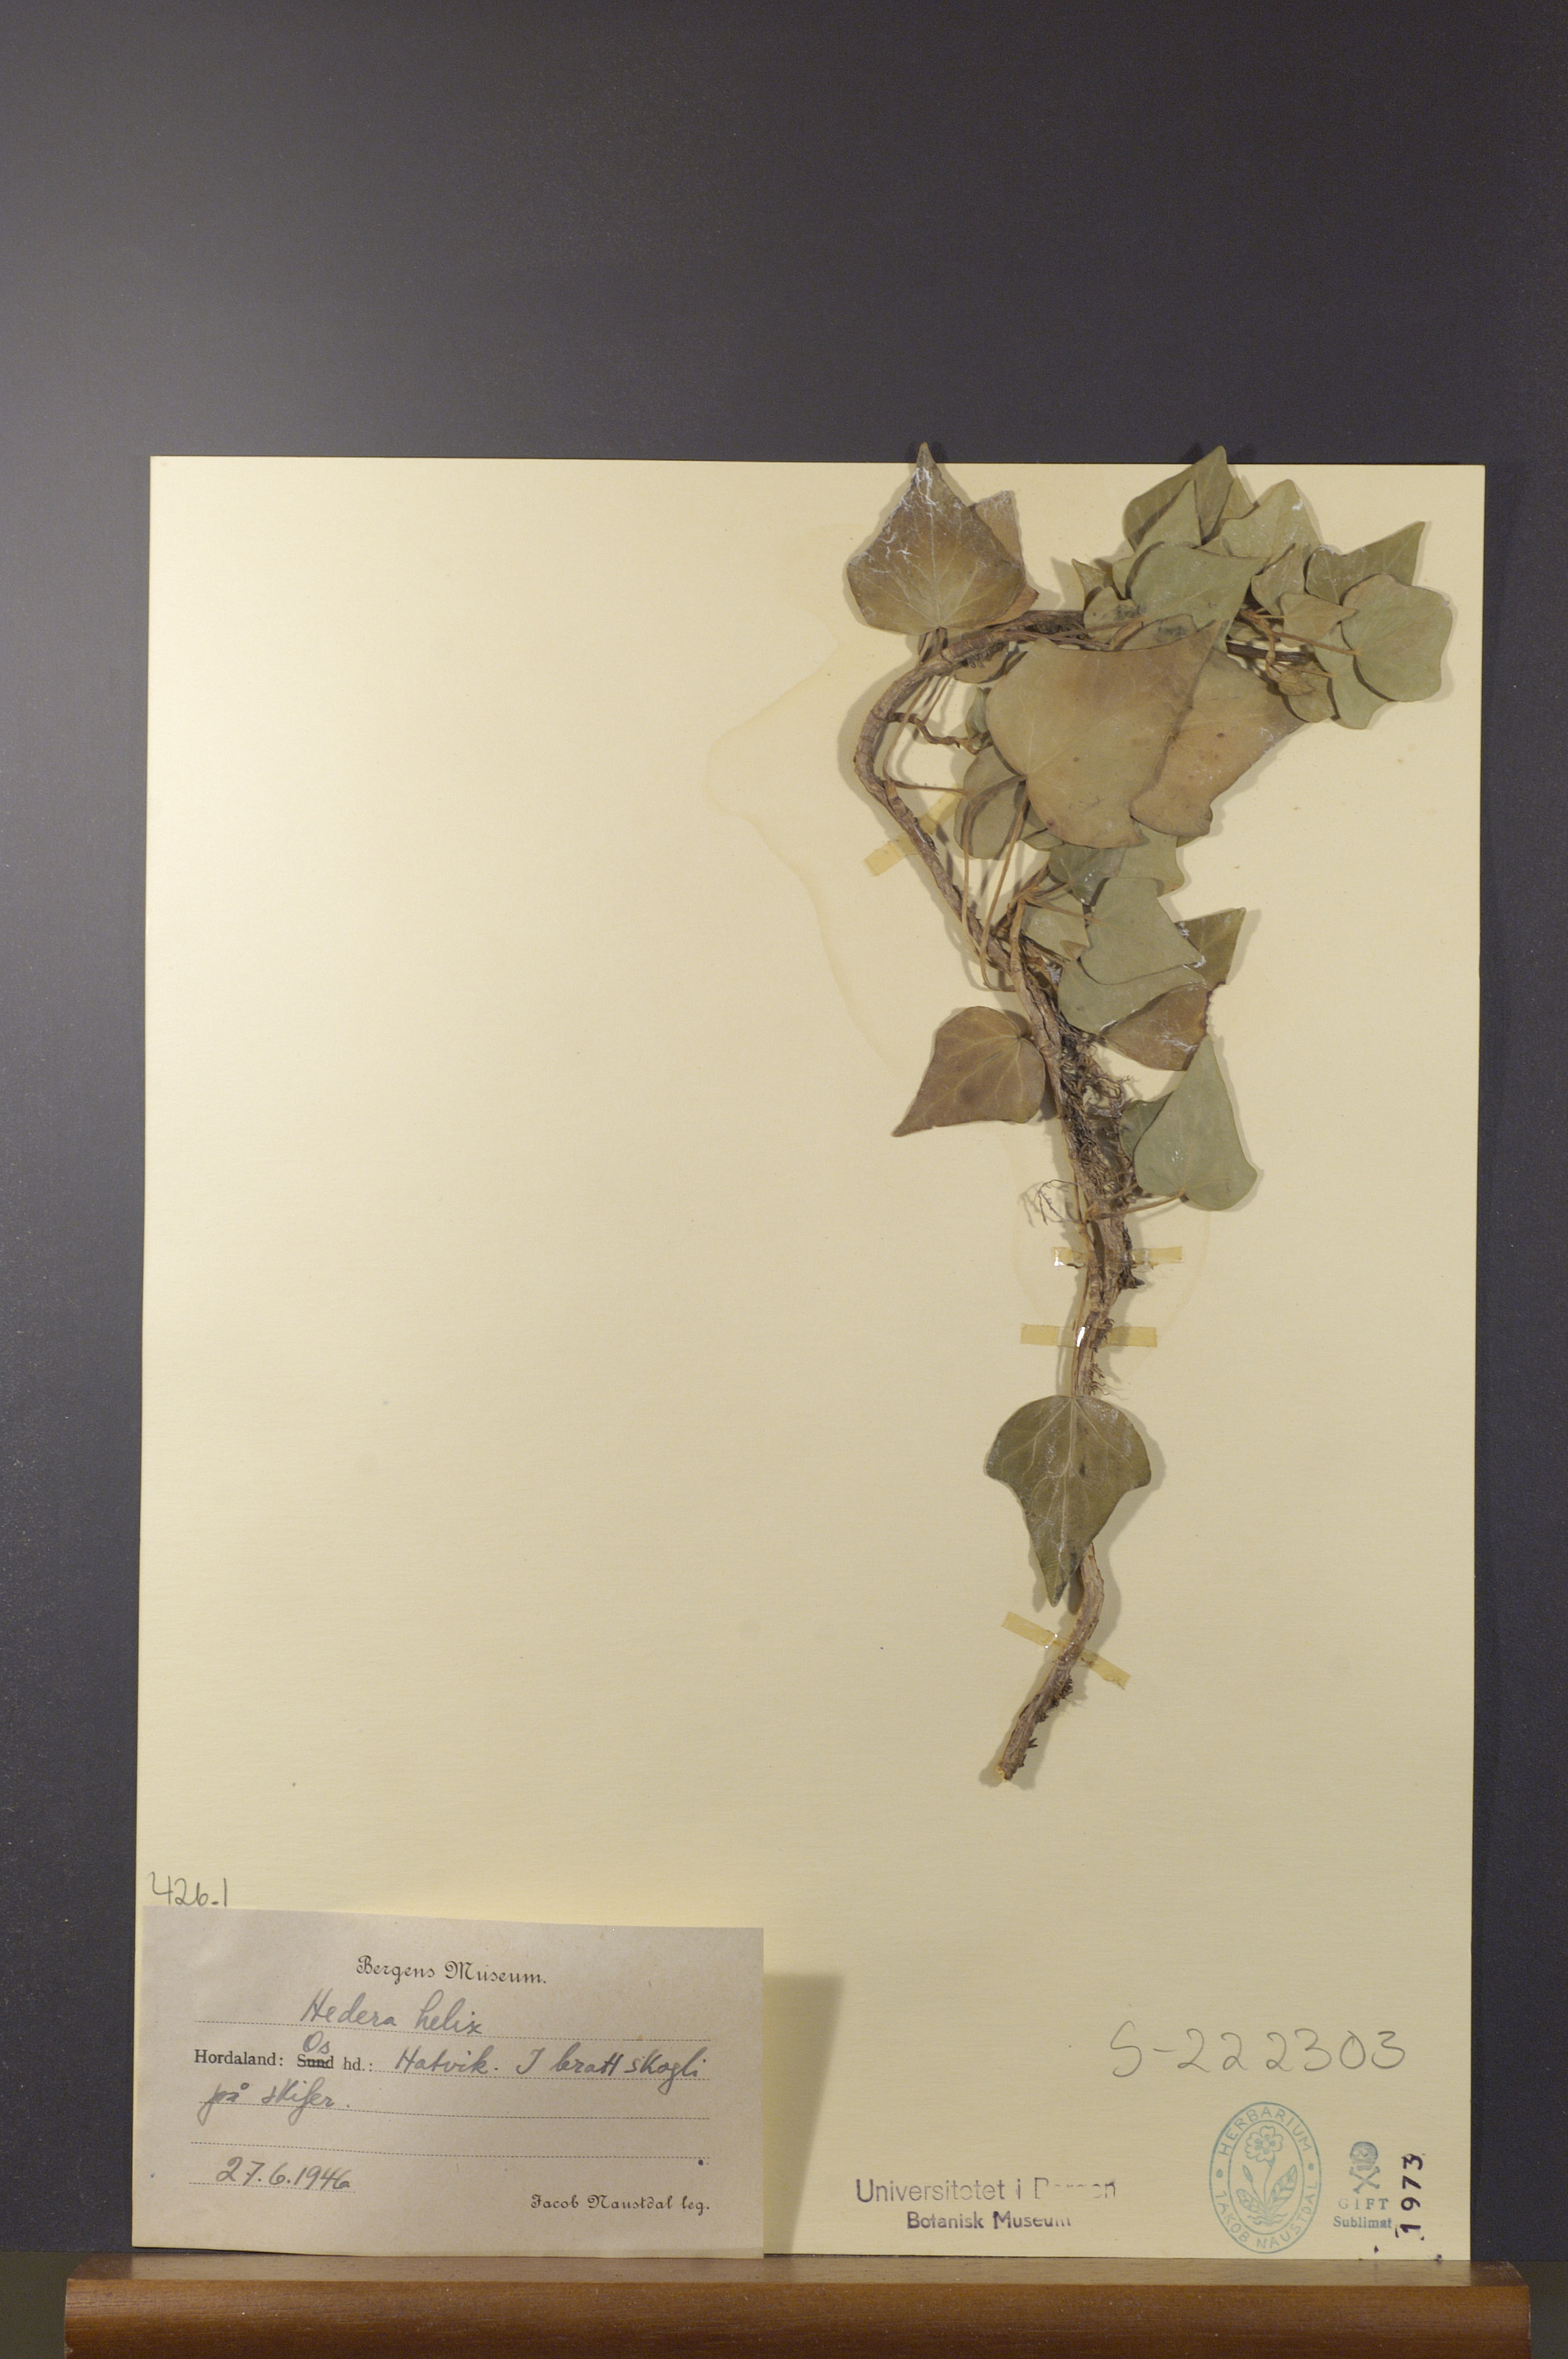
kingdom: Plantae
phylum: Tracheophyta
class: Magnoliopsida
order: Apiales
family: Araliaceae
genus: Hedera
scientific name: Hedera helix
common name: Ivy
